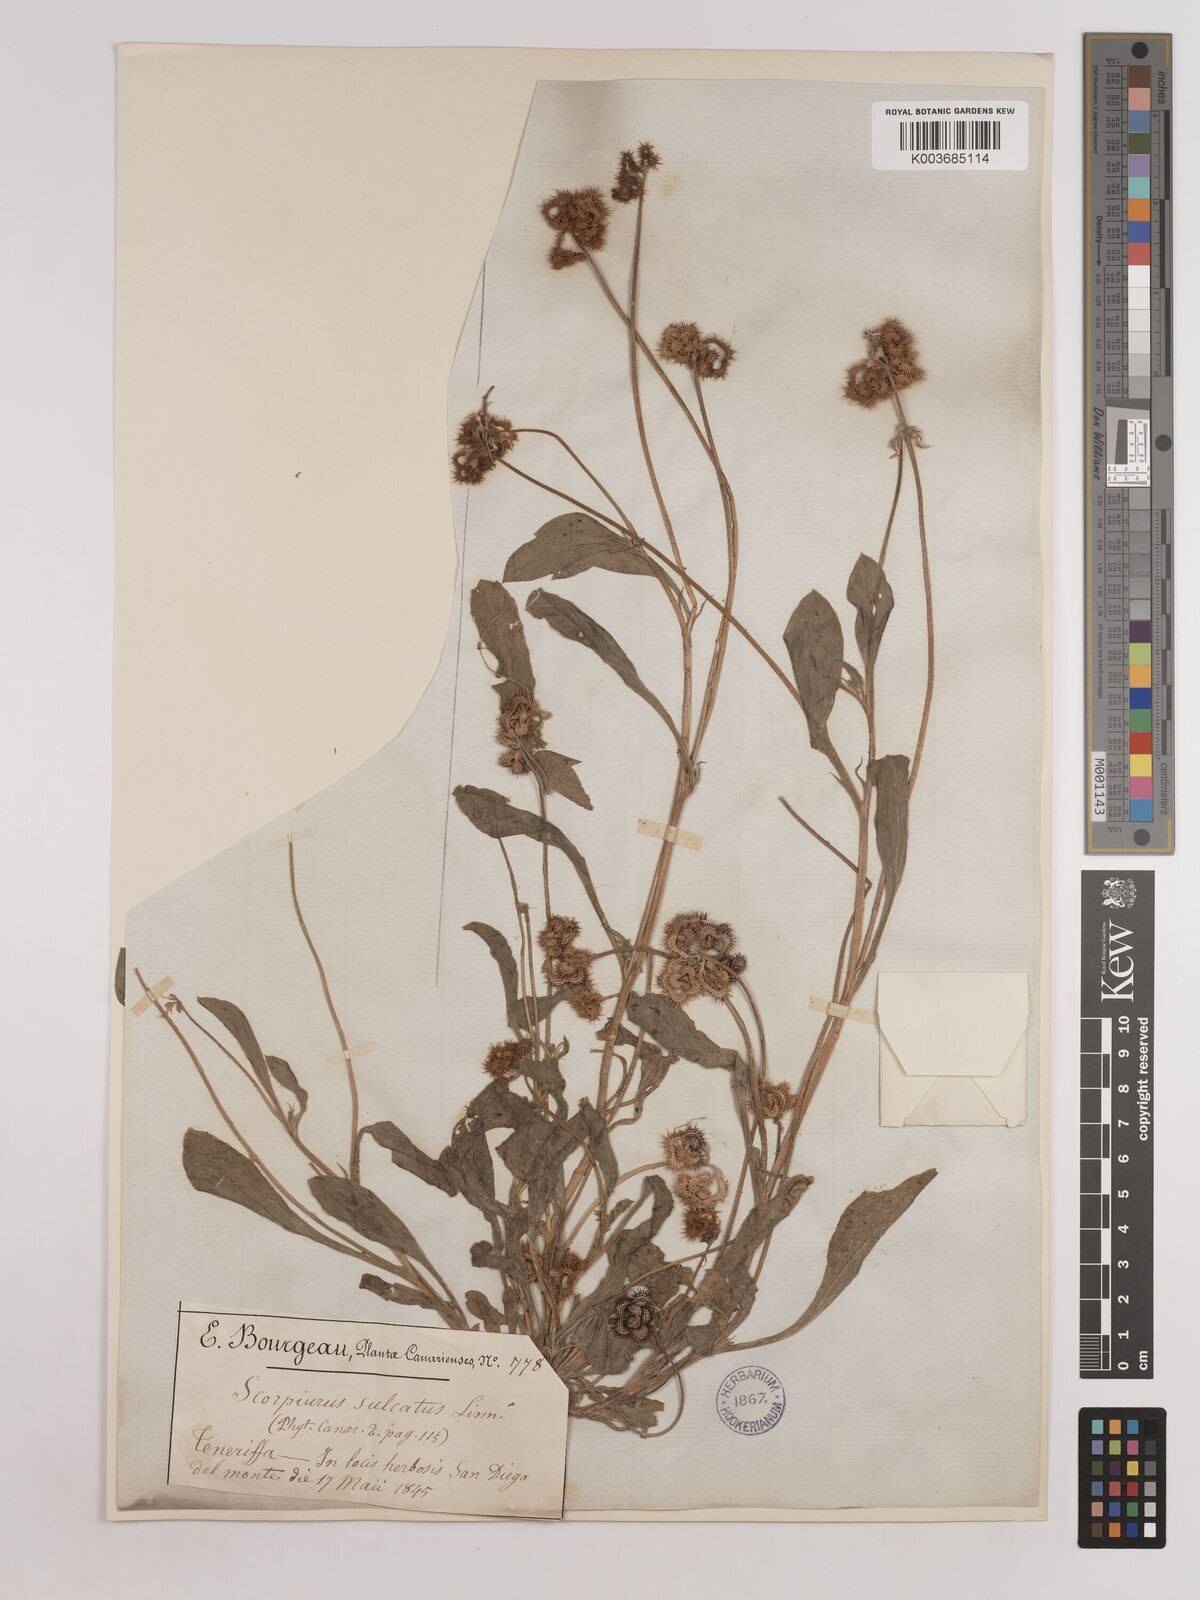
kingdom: Plantae
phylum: Tracheophyta
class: Magnoliopsida
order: Fabales
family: Fabaceae
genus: Scorpiurus
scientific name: Scorpiurus muricatus
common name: Caterpillar-plant
